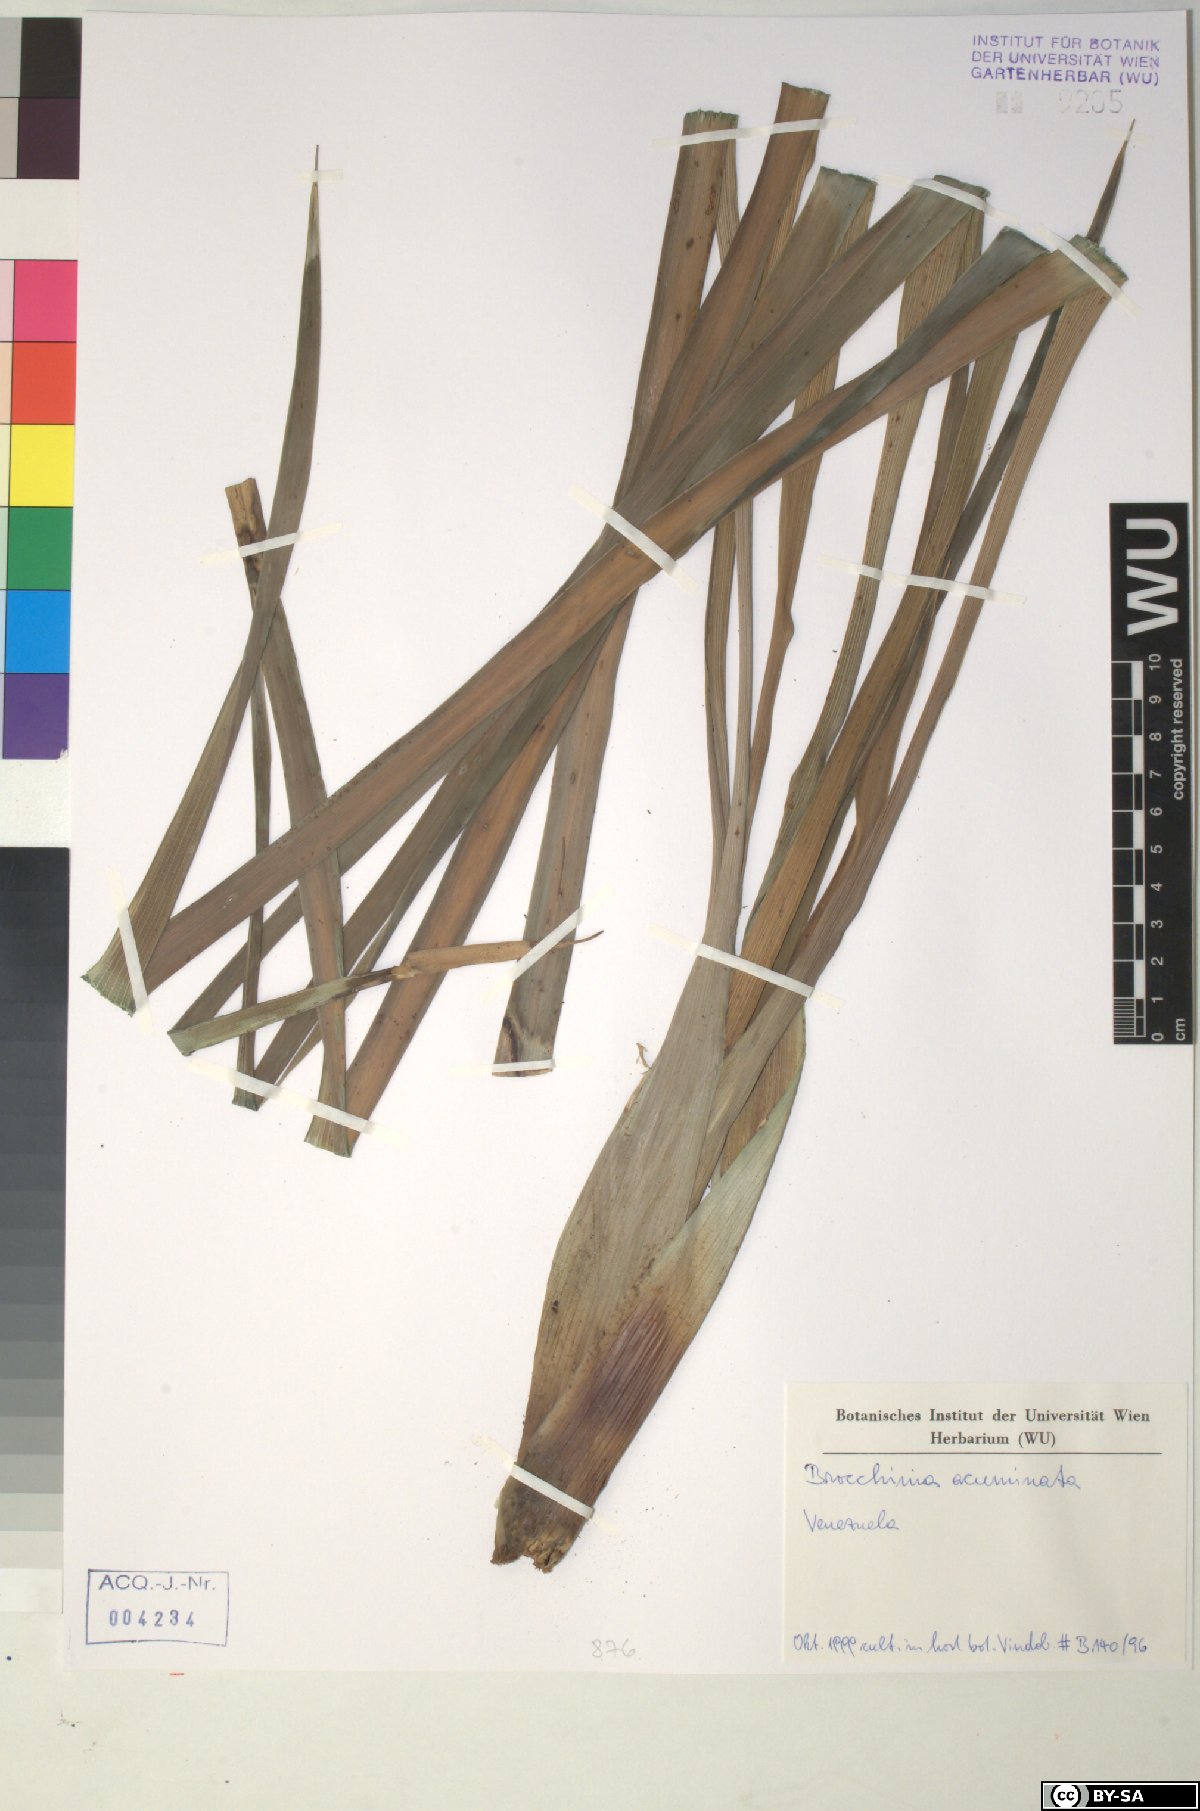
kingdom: Plantae
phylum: Tracheophyta
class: Liliopsida
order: Poales
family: Bromeliaceae
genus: Brocchinia
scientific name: Brocchinia acuminata
